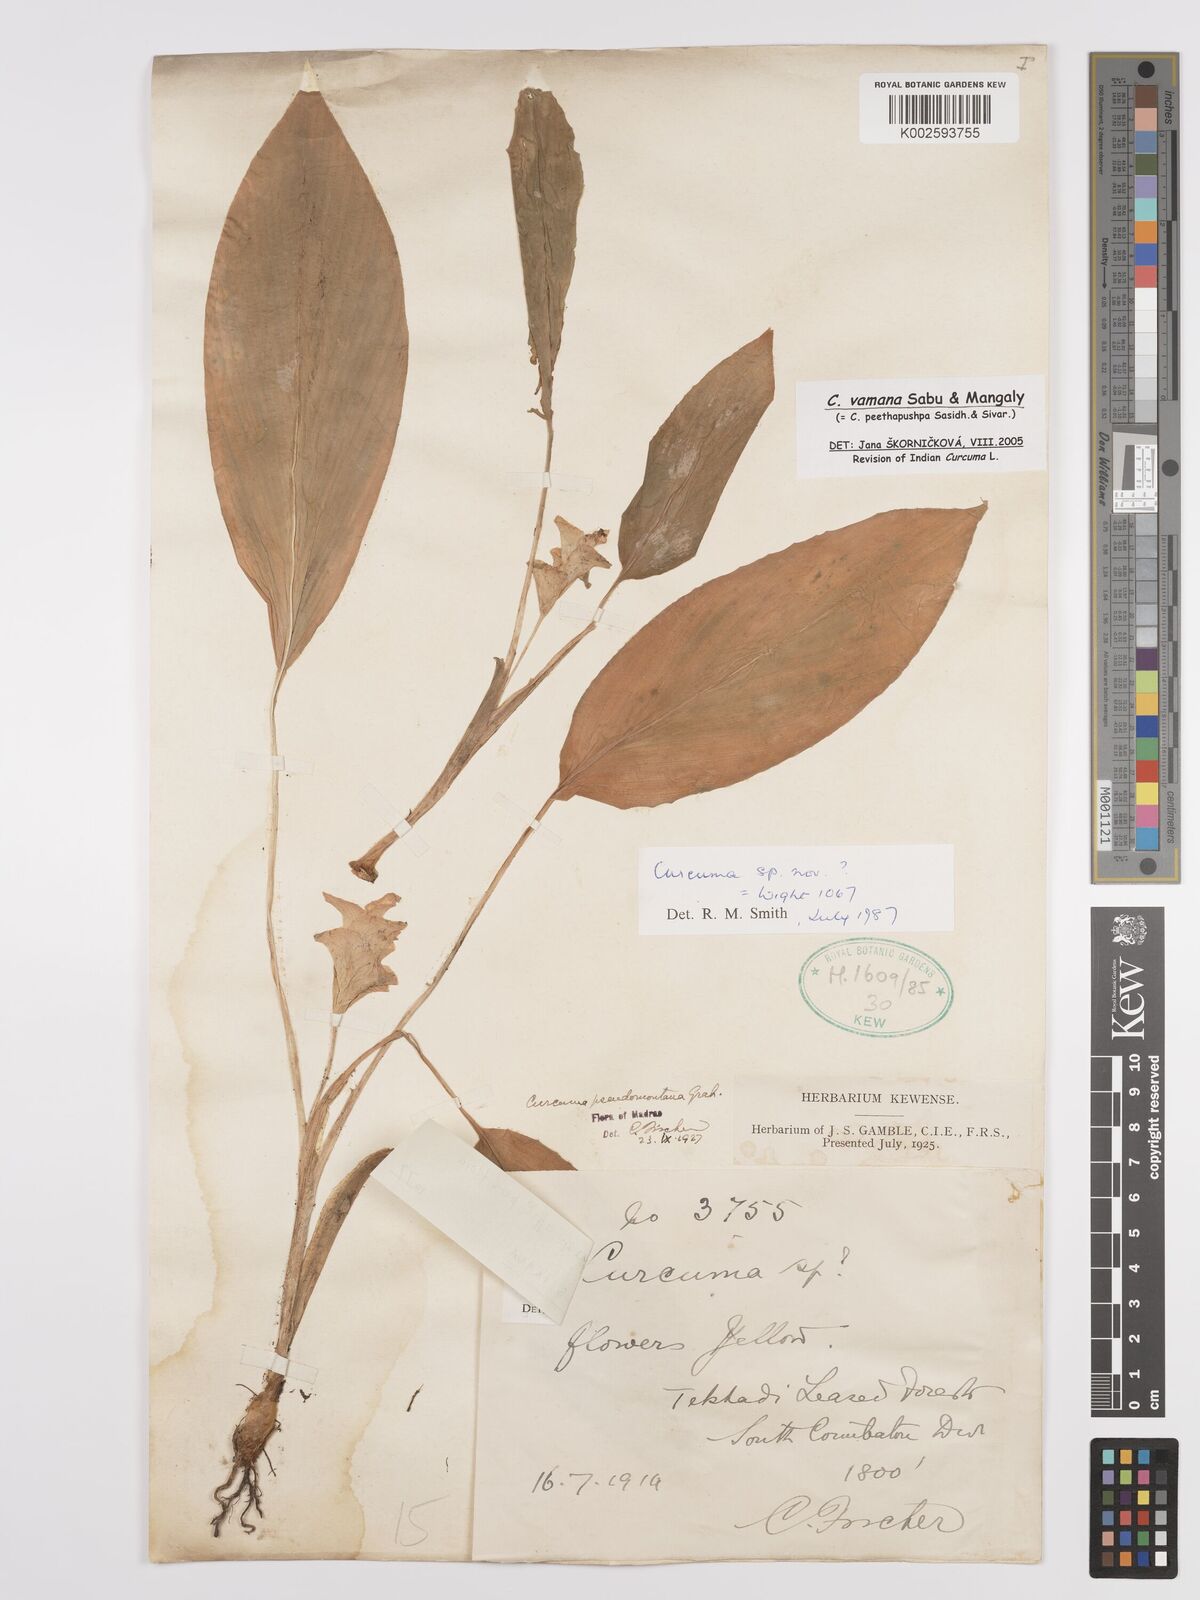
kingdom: Plantae
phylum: Tracheophyta
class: Liliopsida
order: Zingiberales
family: Zingiberaceae
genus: Curcuma
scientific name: Curcuma vamana
